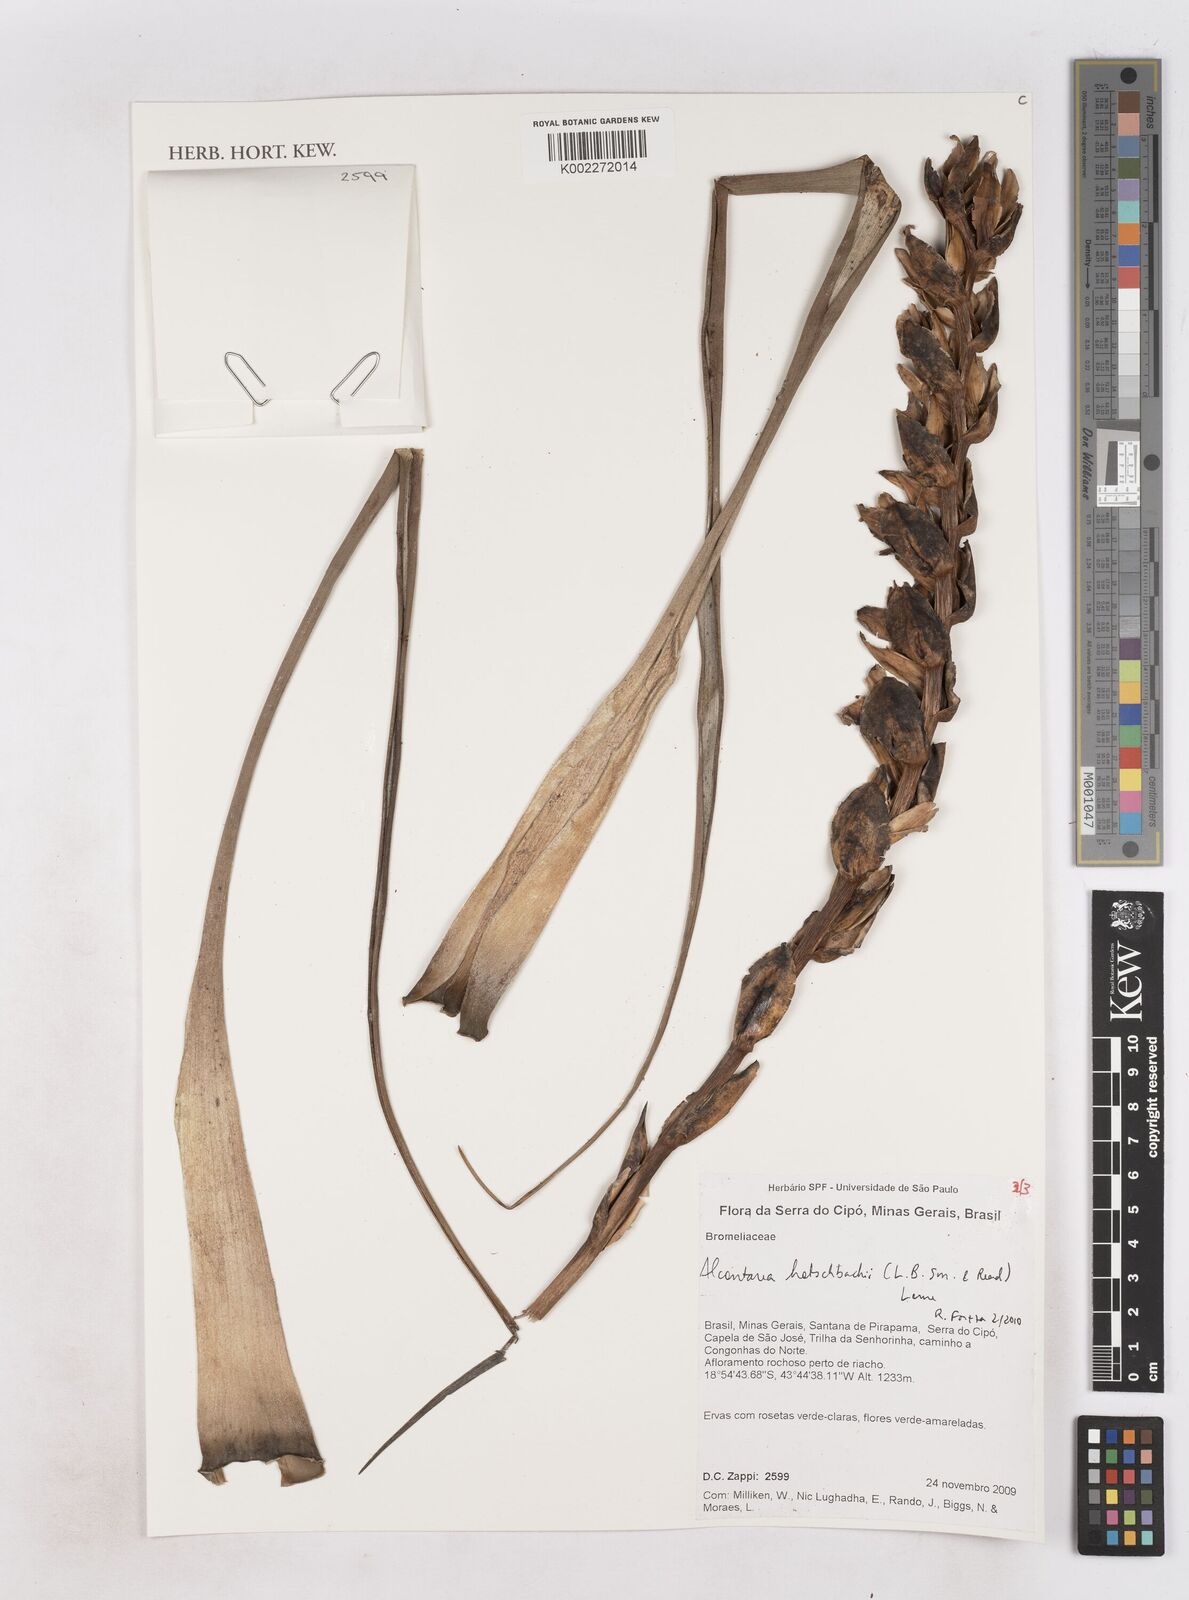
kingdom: Plantae
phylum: Tracheophyta
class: Liliopsida
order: Poales
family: Bromeliaceae
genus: Waltillia
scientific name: Waltillia hatschbachii
